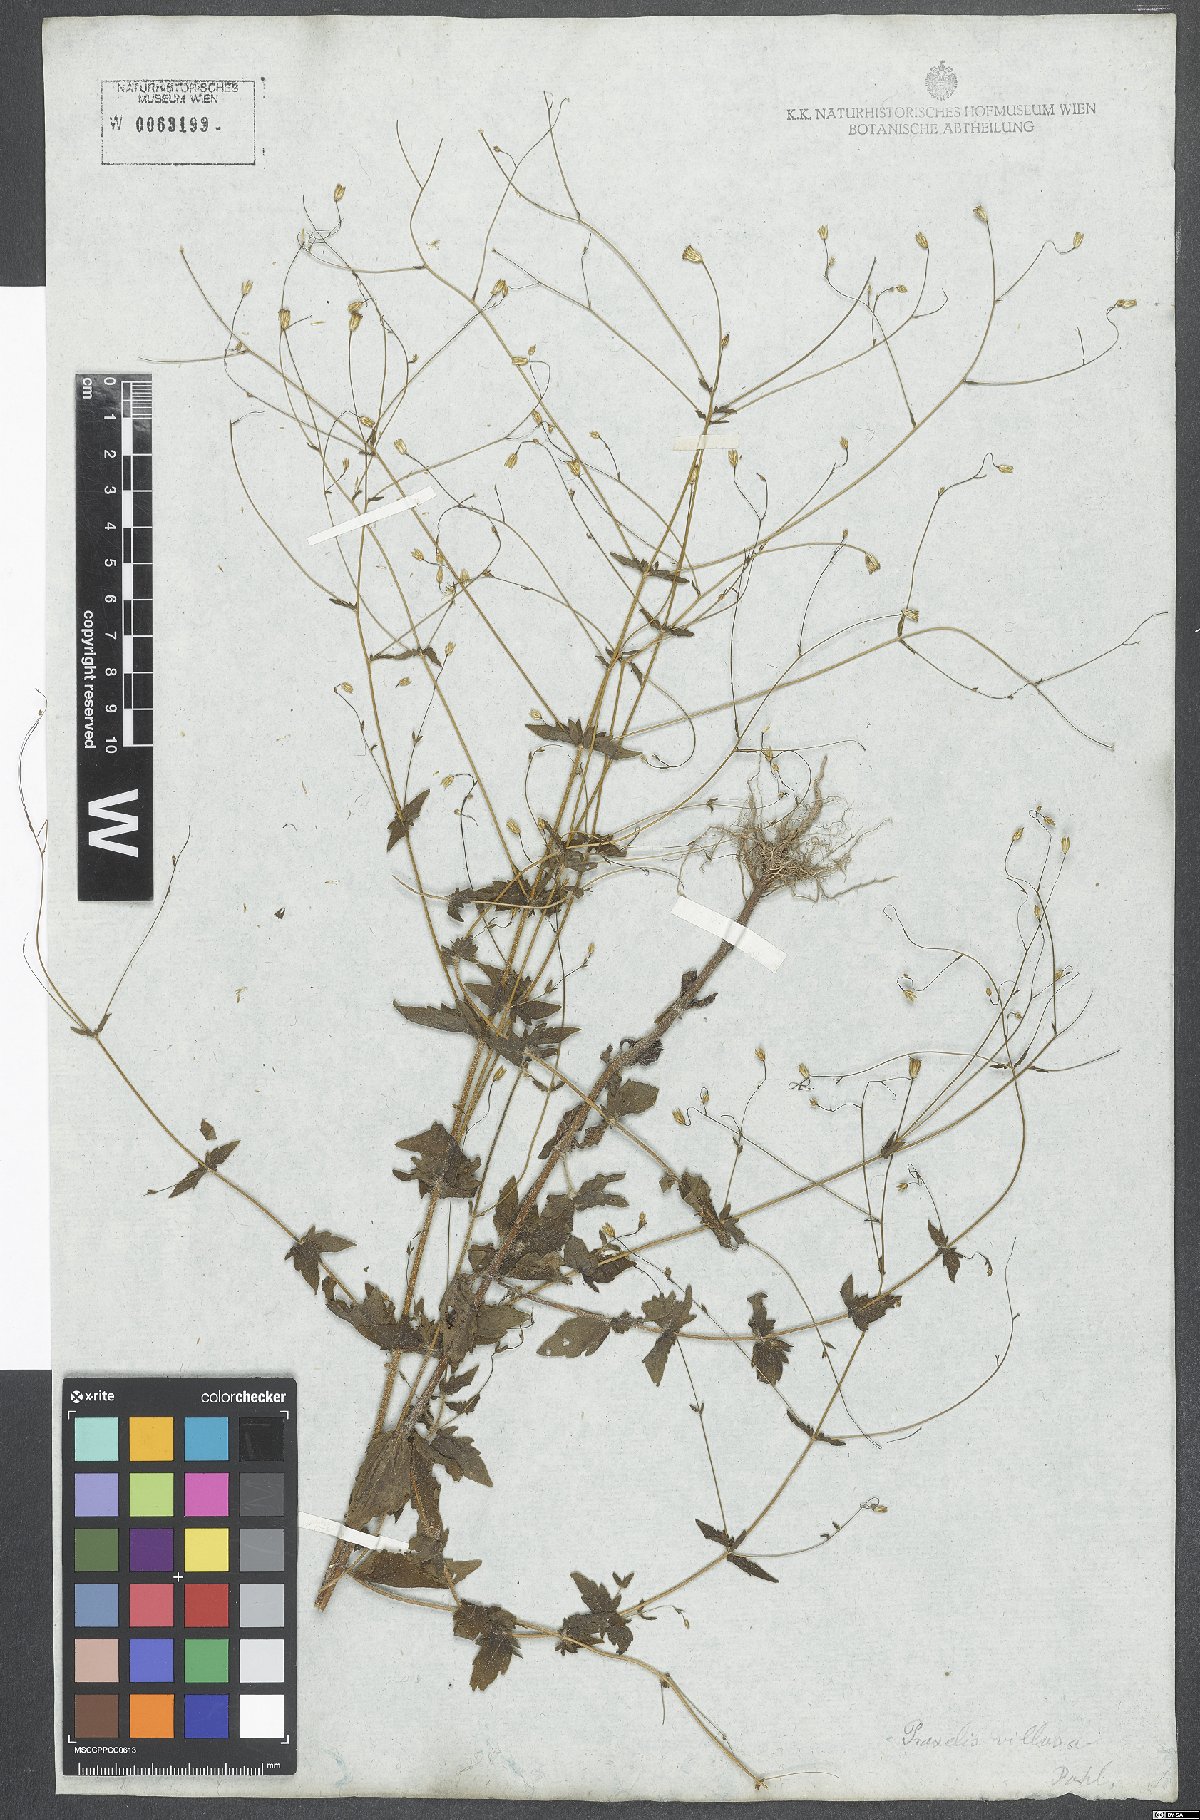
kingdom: Plantae
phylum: Tracheophyta
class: Magnoliopsida
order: Asterales
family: Asteraceae
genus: Ageratina
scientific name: Ageratina altissima
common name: White snakeroot
